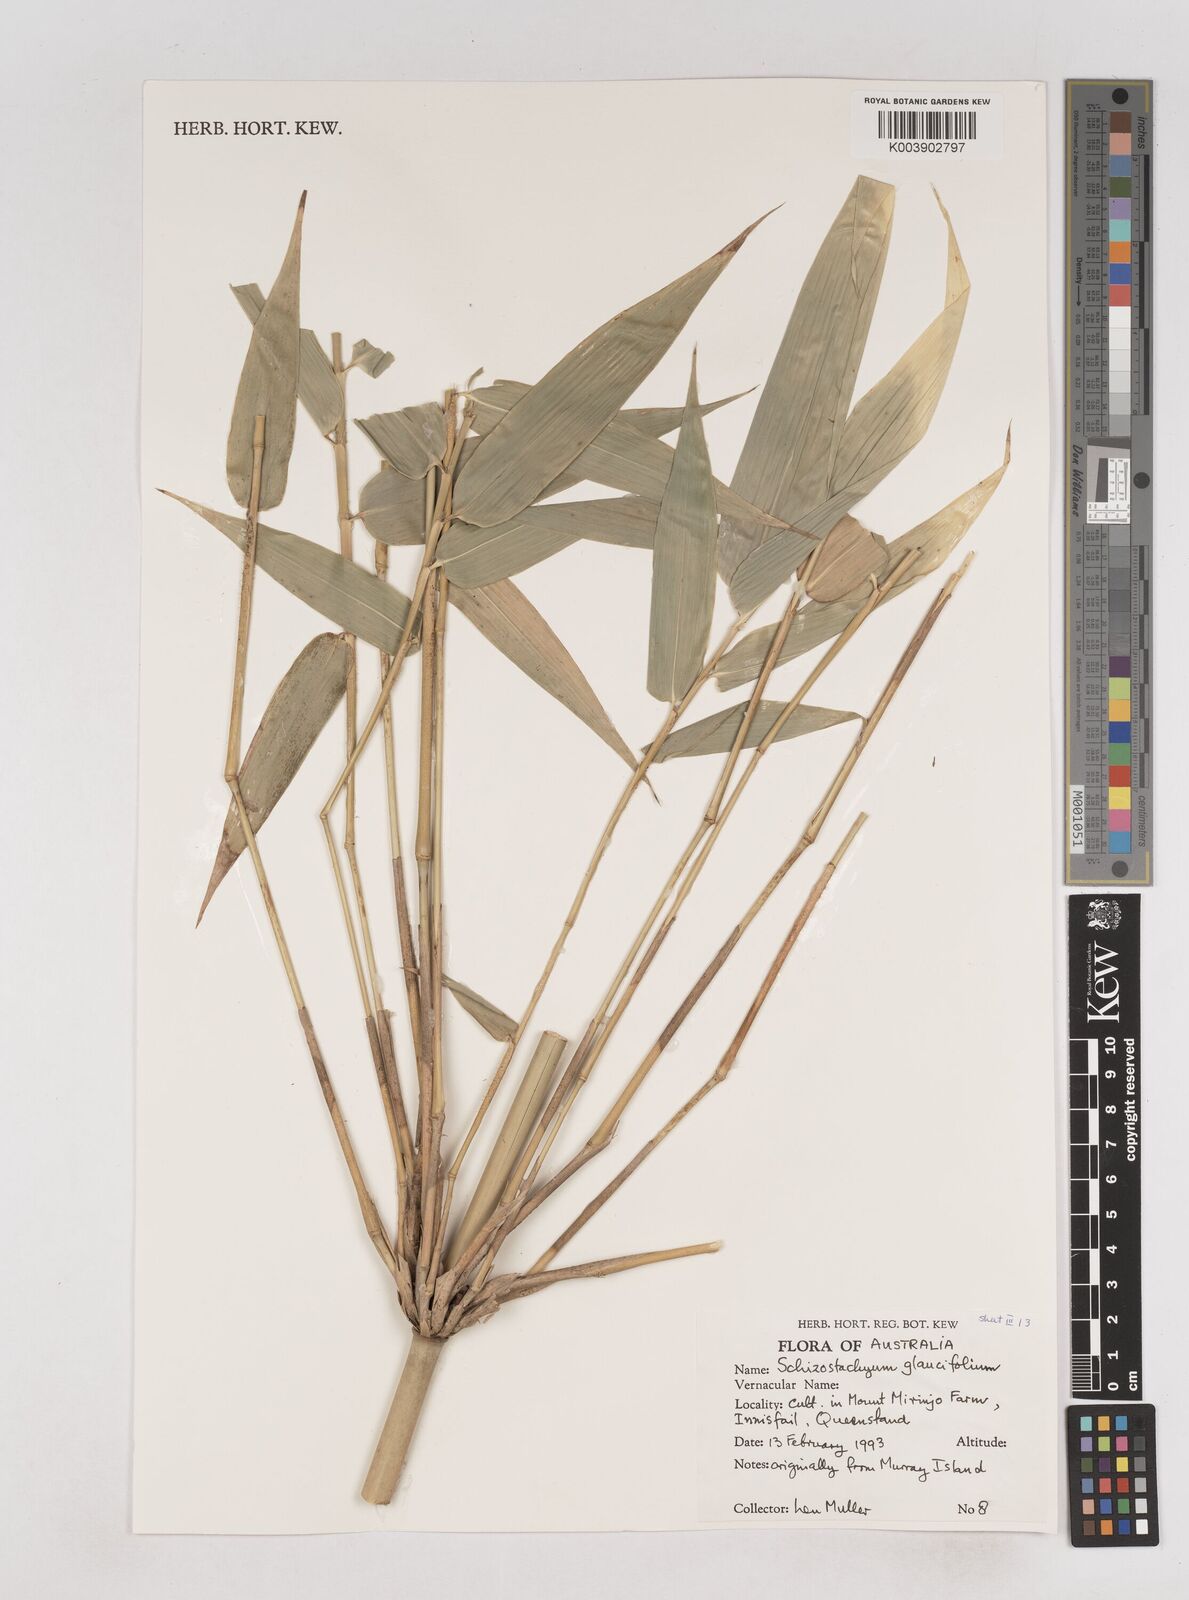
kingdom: Plantae
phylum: Tracheophyta
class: Liliopsida
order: Poales
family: Poaceae
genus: Schizostachyum
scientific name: Schizostachyum glaucifolium
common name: Polynesian 'ohe
